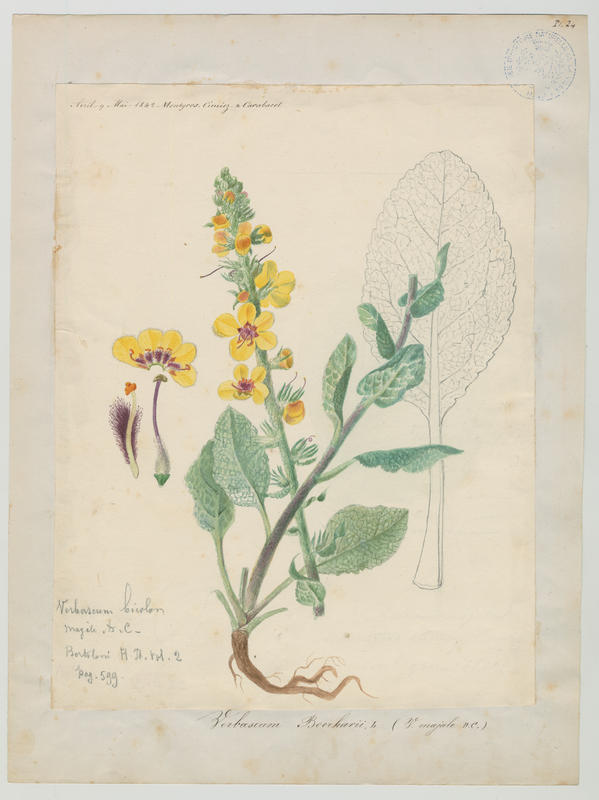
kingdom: Plantae
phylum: Tracheophyta
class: Magnoliopsida
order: Lamiales
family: Scrophulariaceae
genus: Verbascum
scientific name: Verbascum boerhavii
